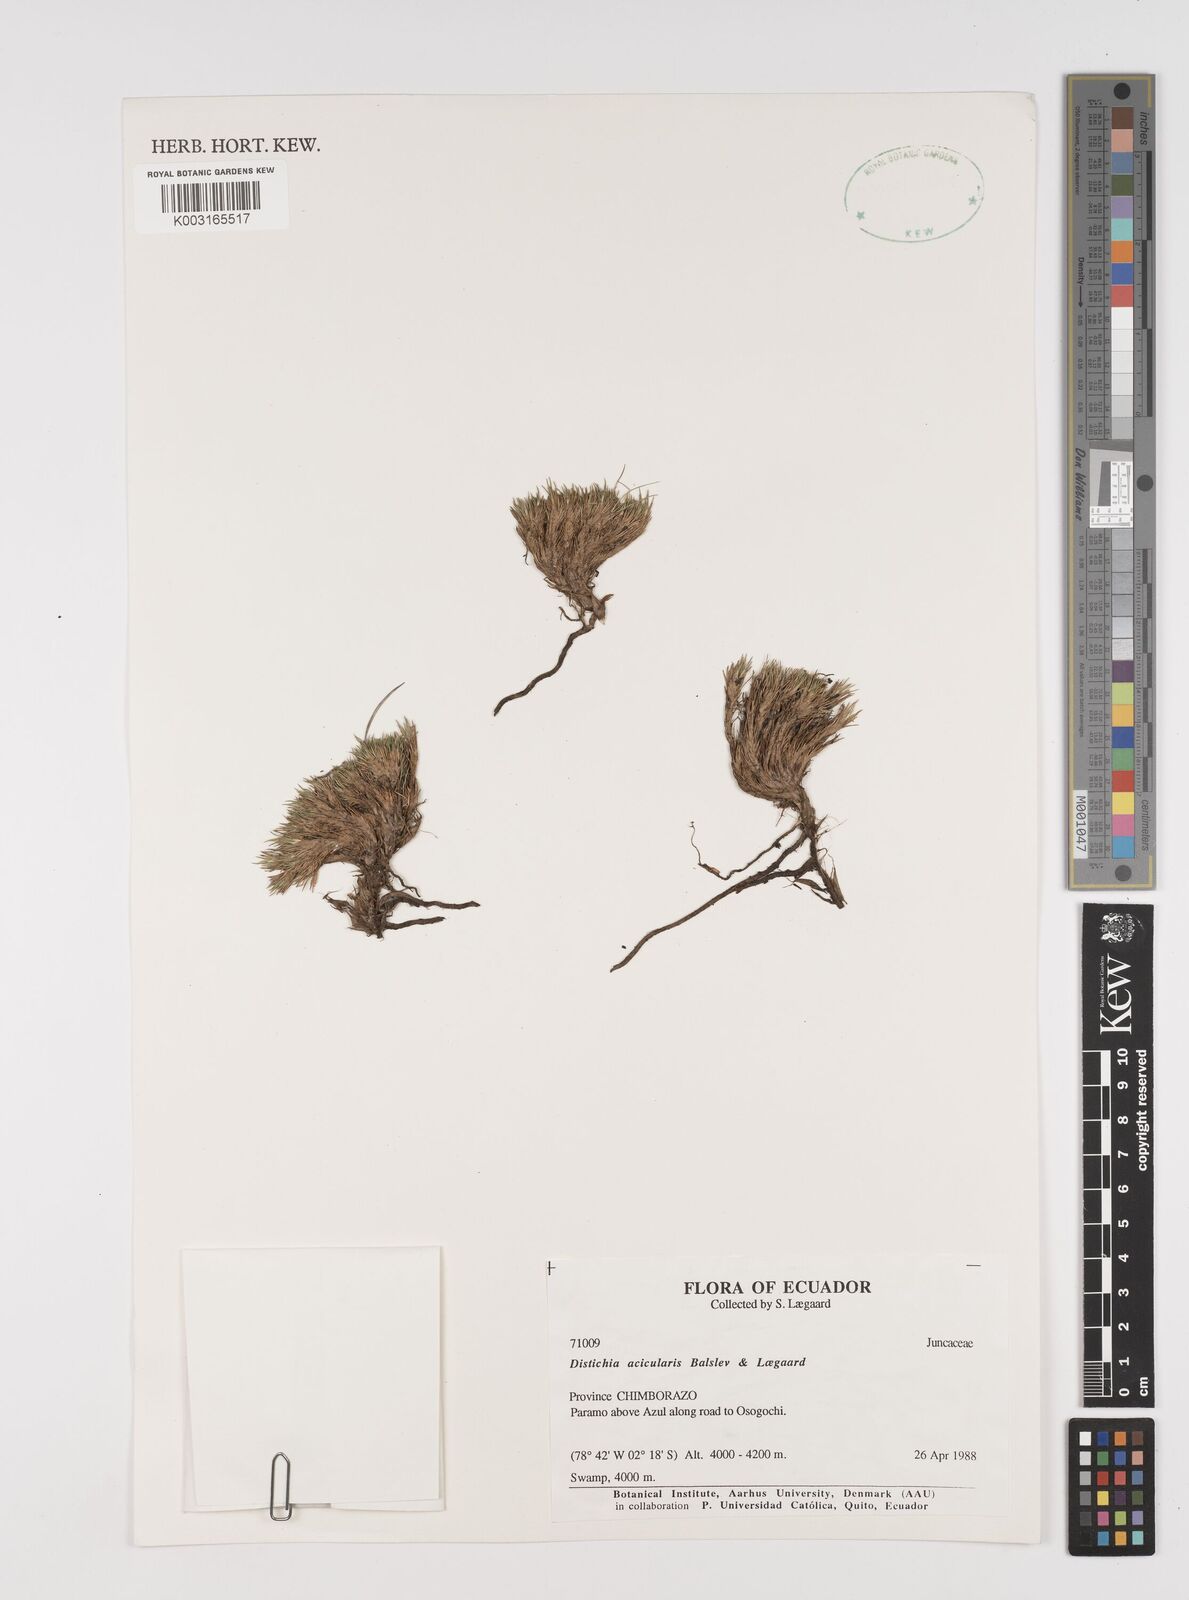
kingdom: Plantae
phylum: Tracheophyta
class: Liliopsida
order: Poales
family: Juncaceae
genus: Distichia
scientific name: Distichia acicularis
